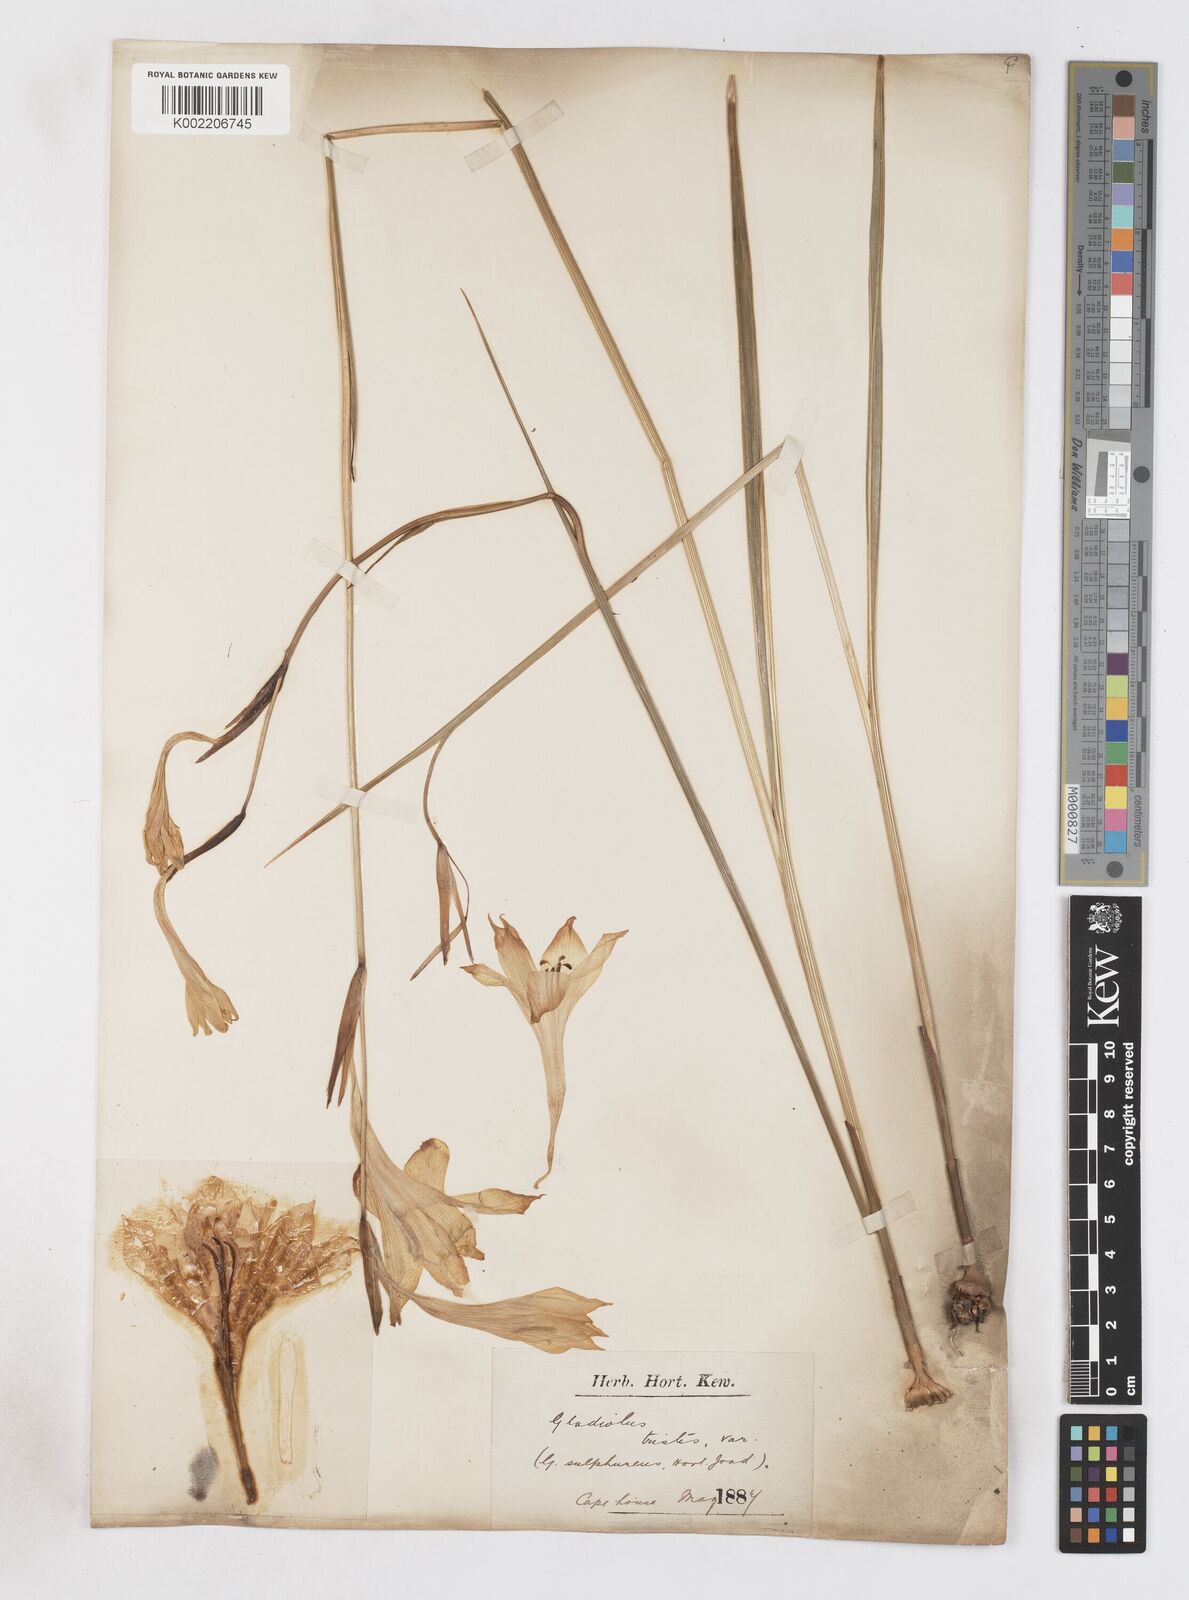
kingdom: Plantae
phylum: Tracheophyta
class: Liliopsida
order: Asparagales
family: Iridaceae
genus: Gladiolus
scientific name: Gladiolus tristis
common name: Ever-flowering gladiolus
